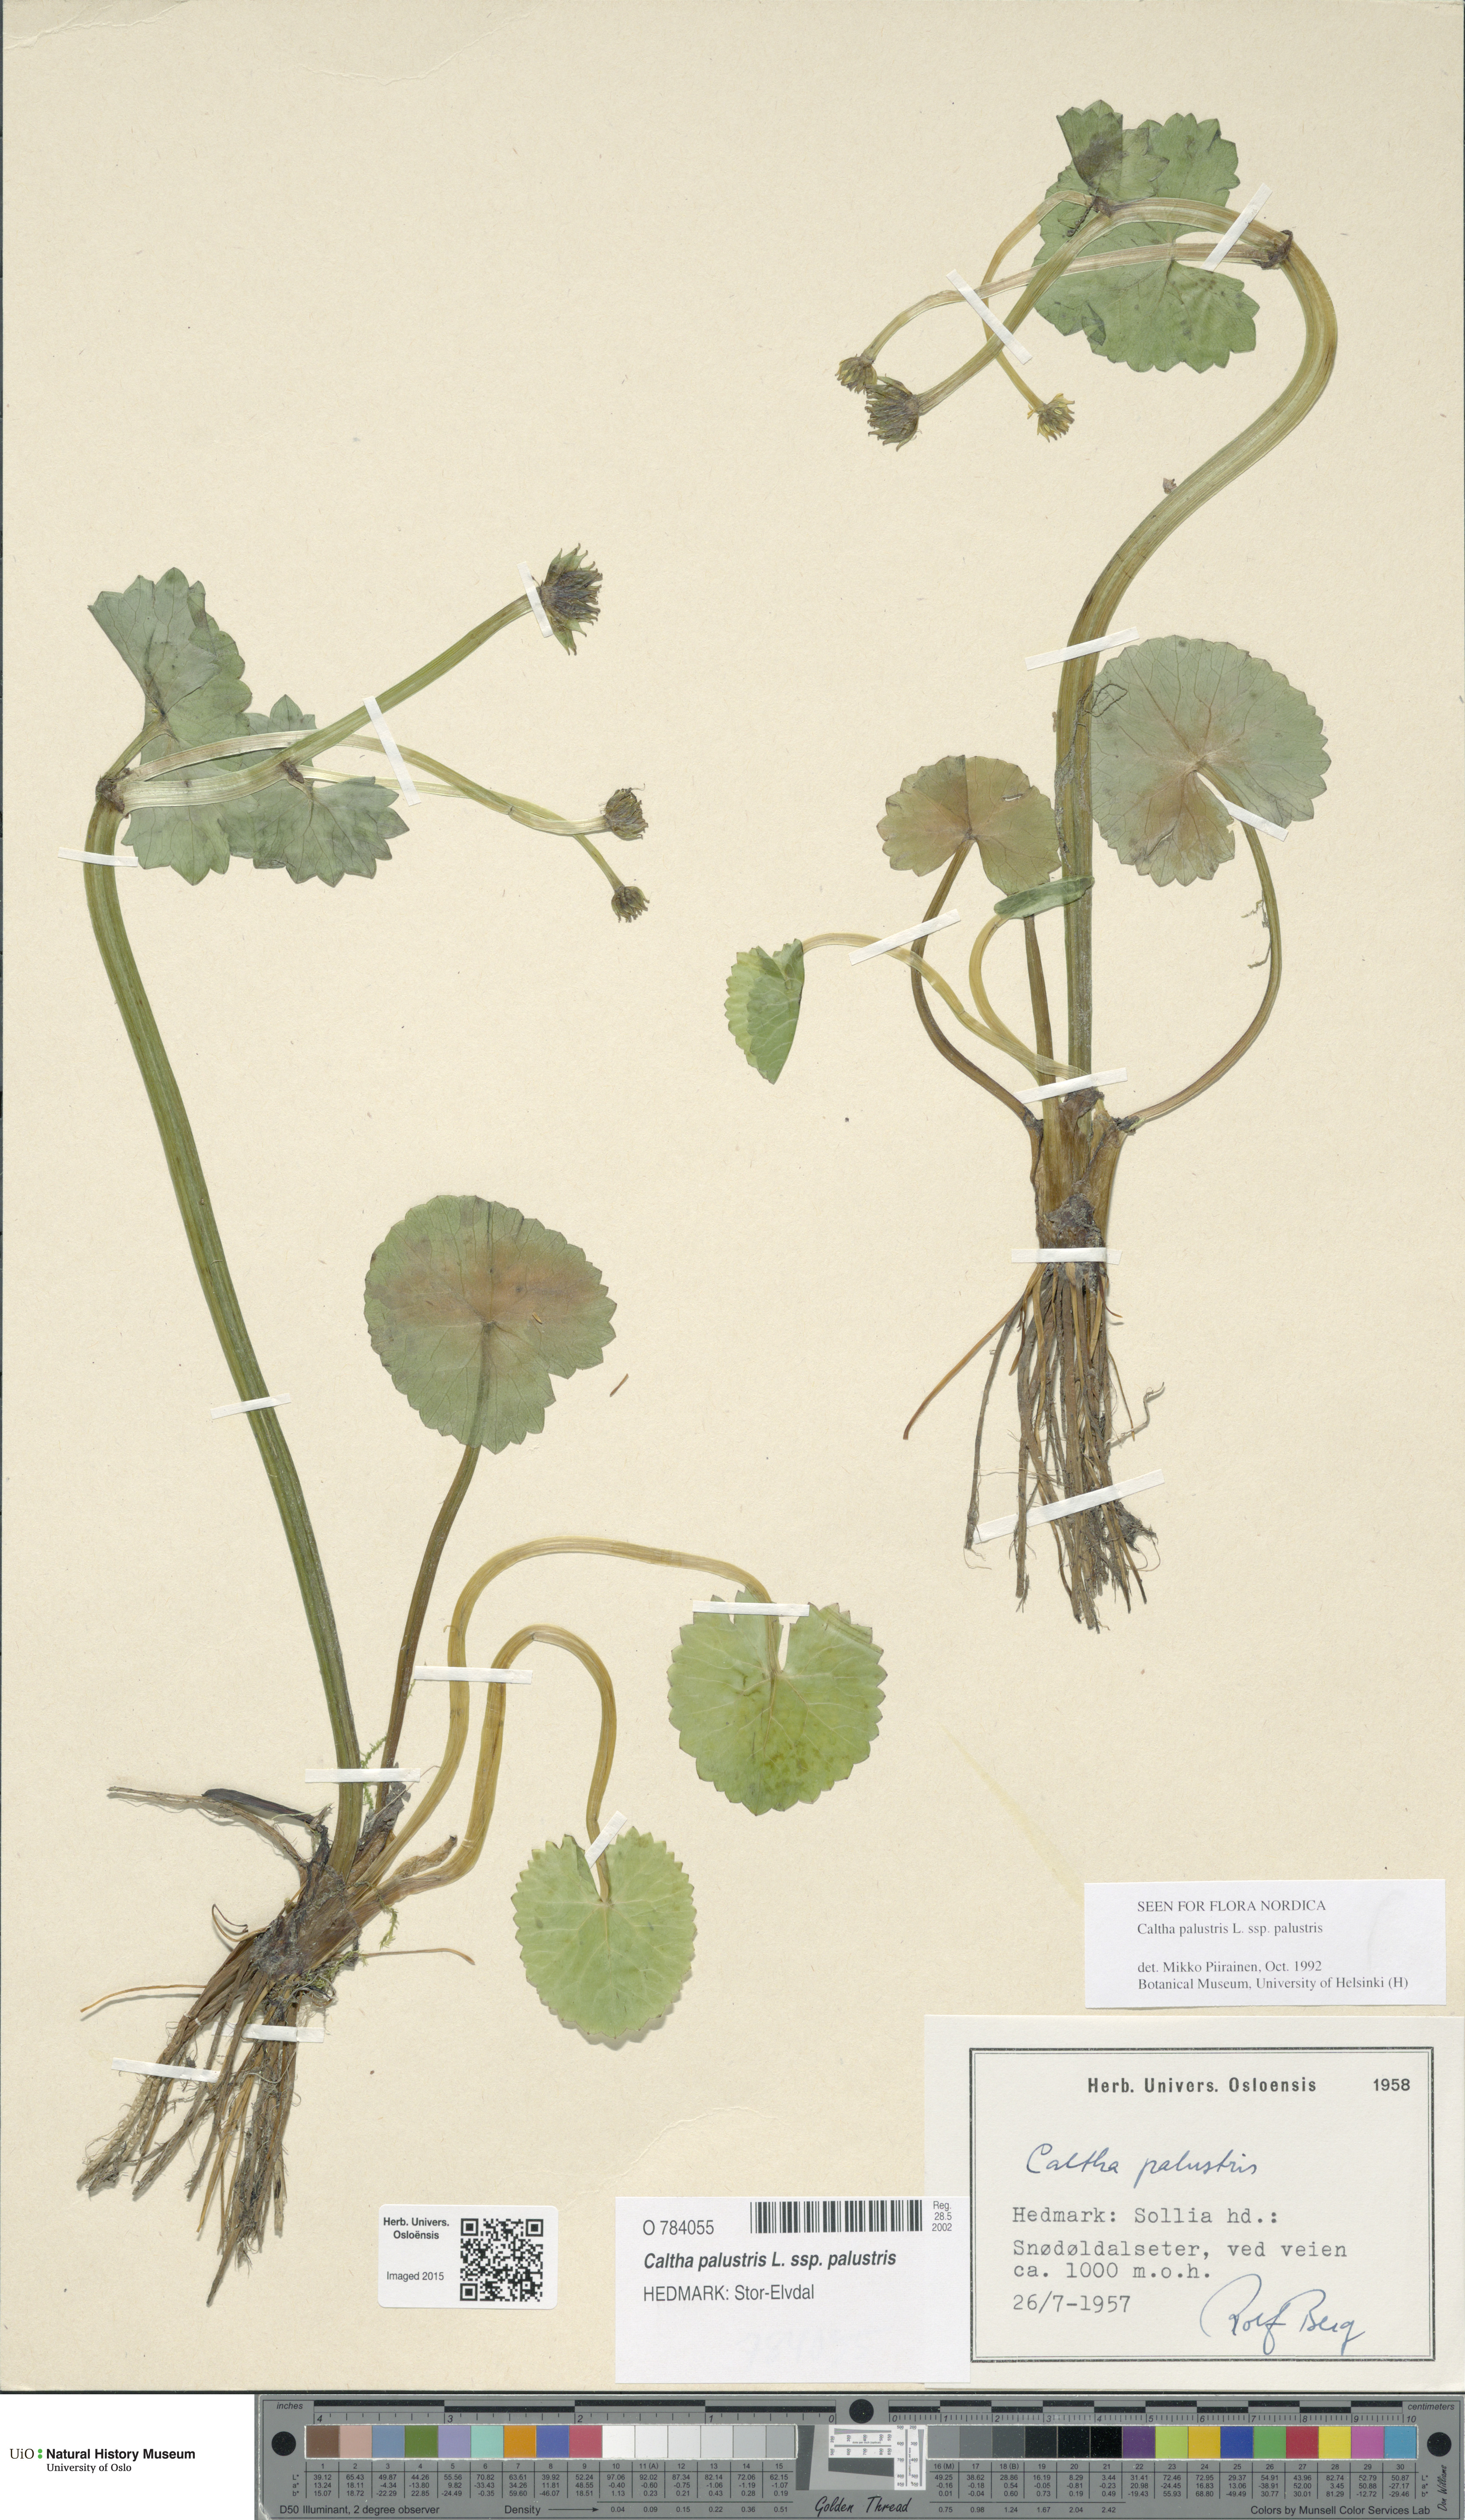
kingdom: Plantae
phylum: Tracheophyta
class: Magnoliopsida
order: Ranunculales
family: Ranunculaceae
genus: Caltha
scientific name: Caltha palustris
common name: Marsh marigold
